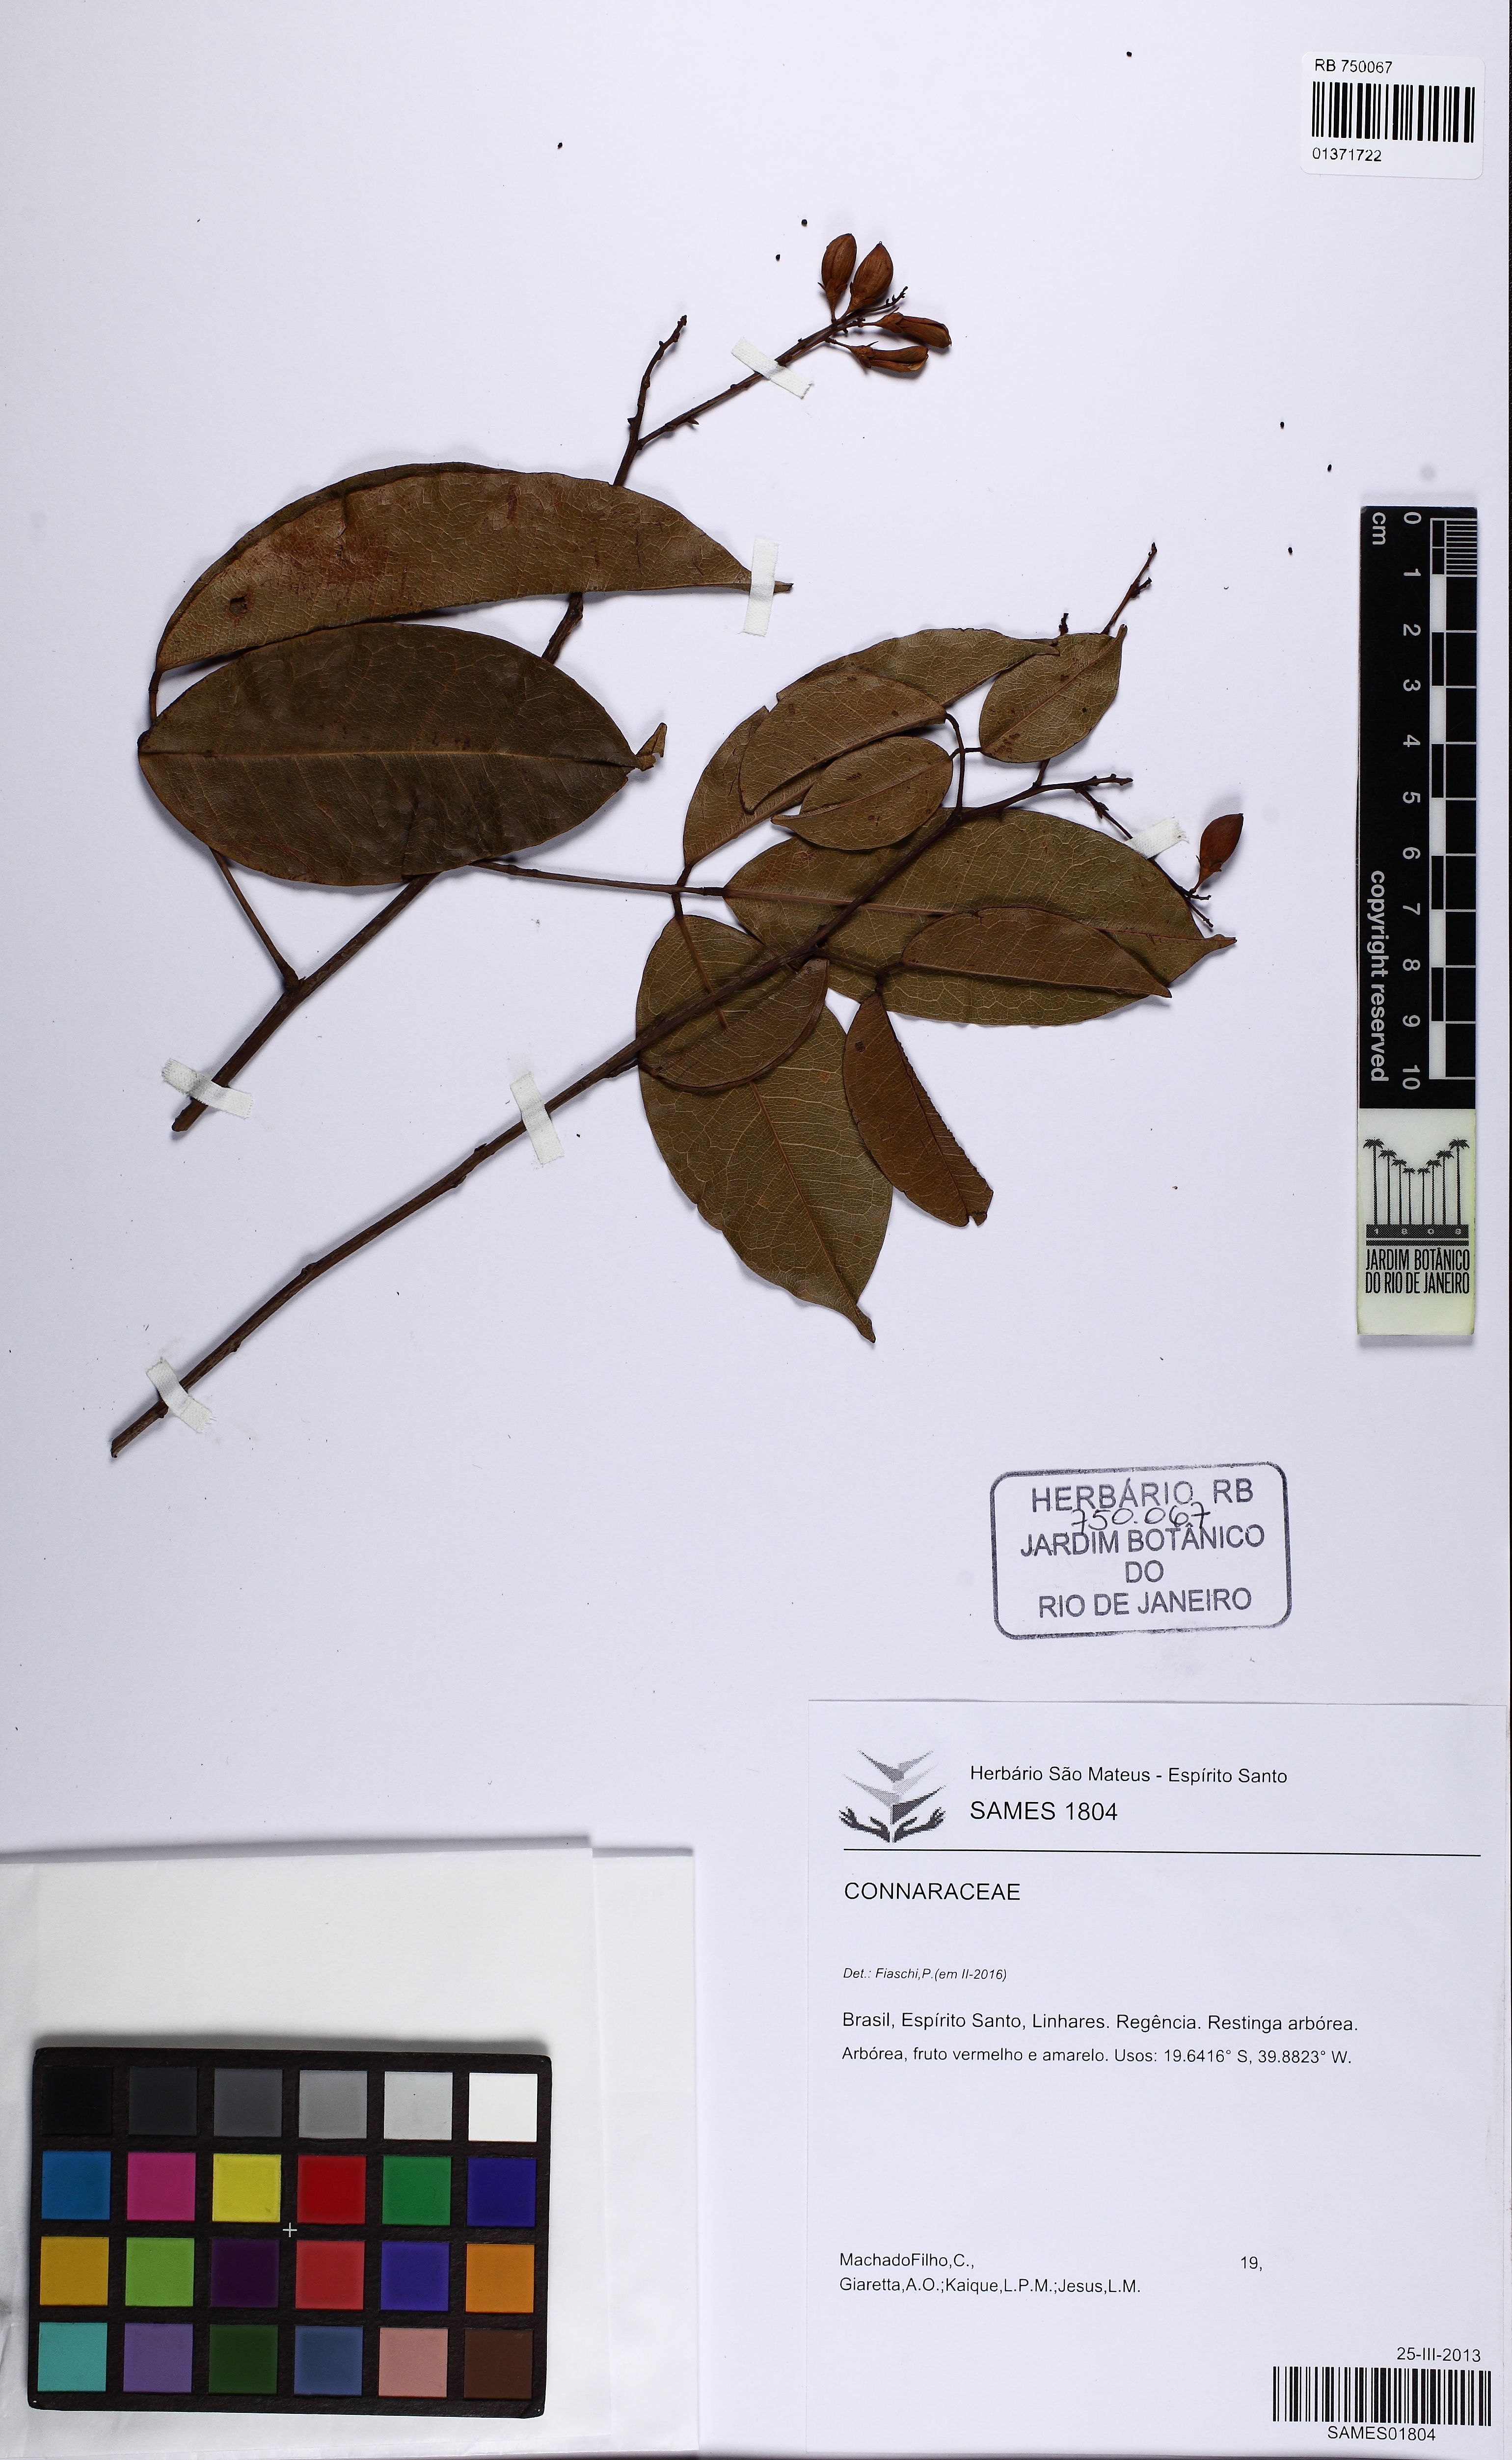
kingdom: Plantae
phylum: Tracheophyta
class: Magnoliopsida
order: Oxalidales
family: Connaraceae
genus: Rourea
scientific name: Rourea
